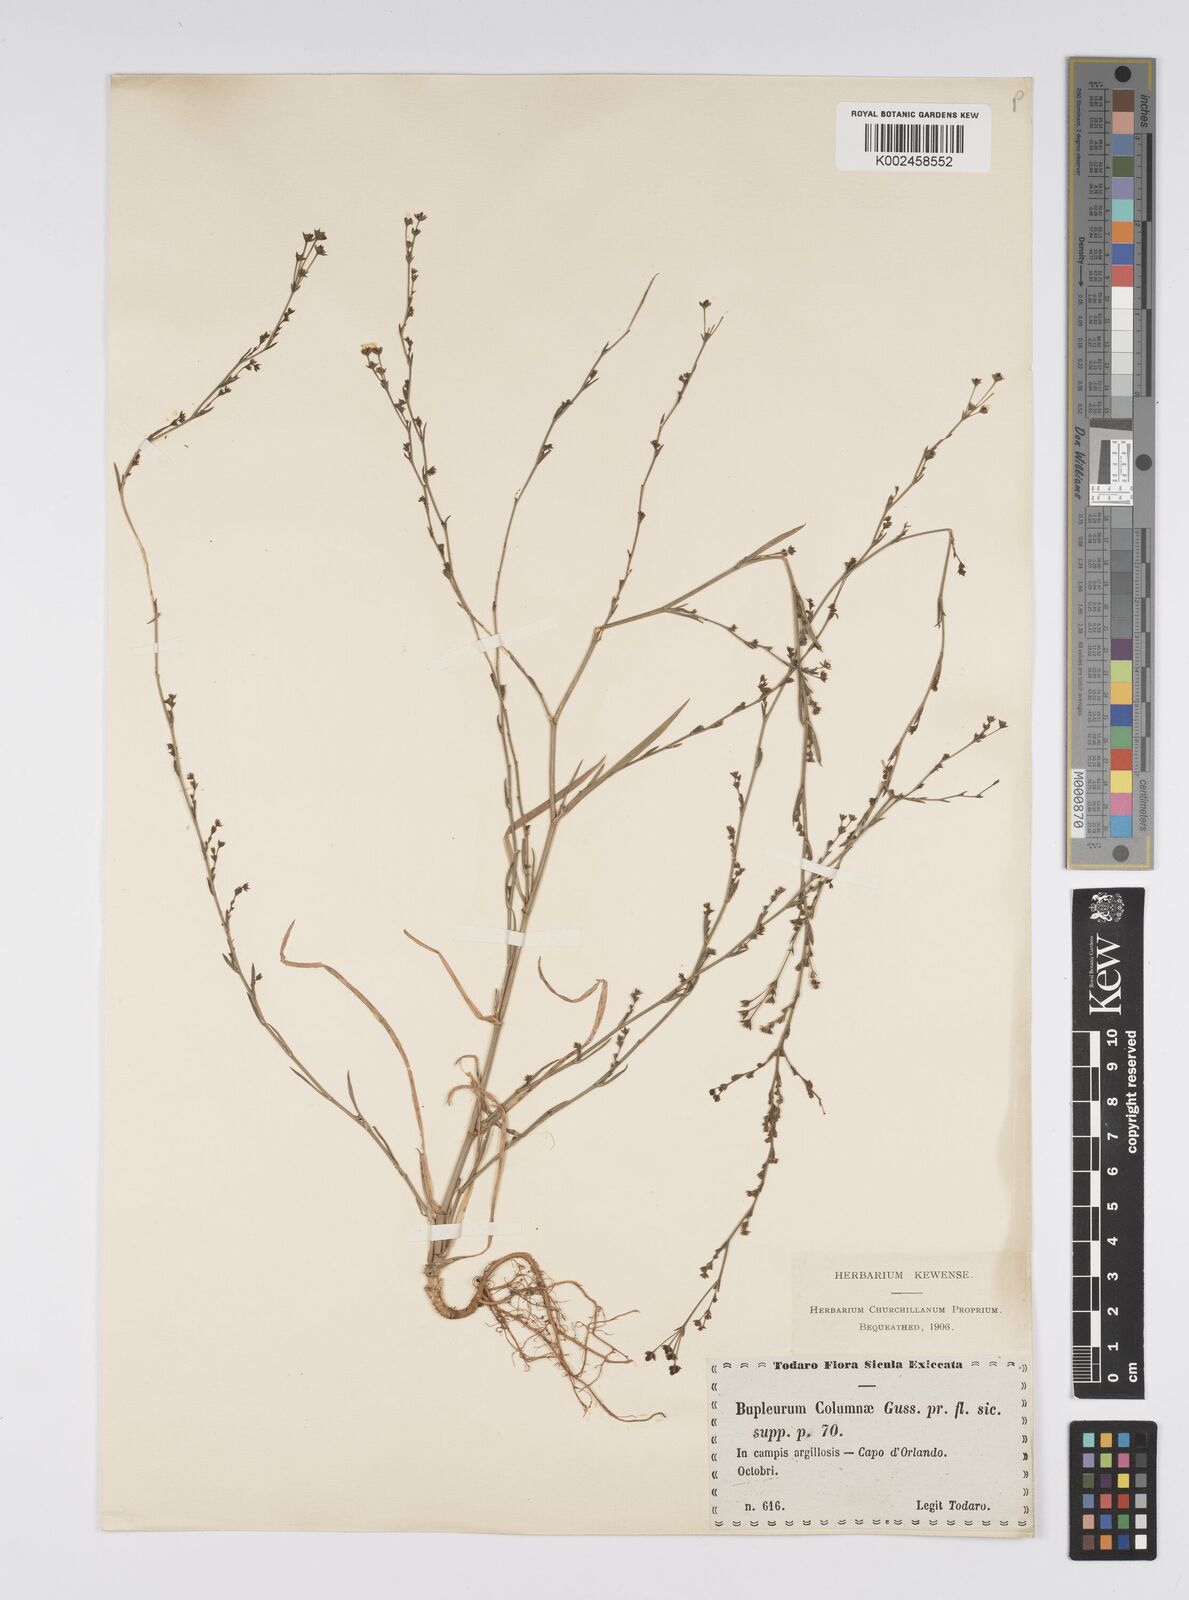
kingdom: Plantae
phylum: Tracheophyta
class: Magnoliopsida
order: Apiales
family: Apiaceae
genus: Bupleurum
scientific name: Bupleurum tenuissimum
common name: Slender hare's-ear
